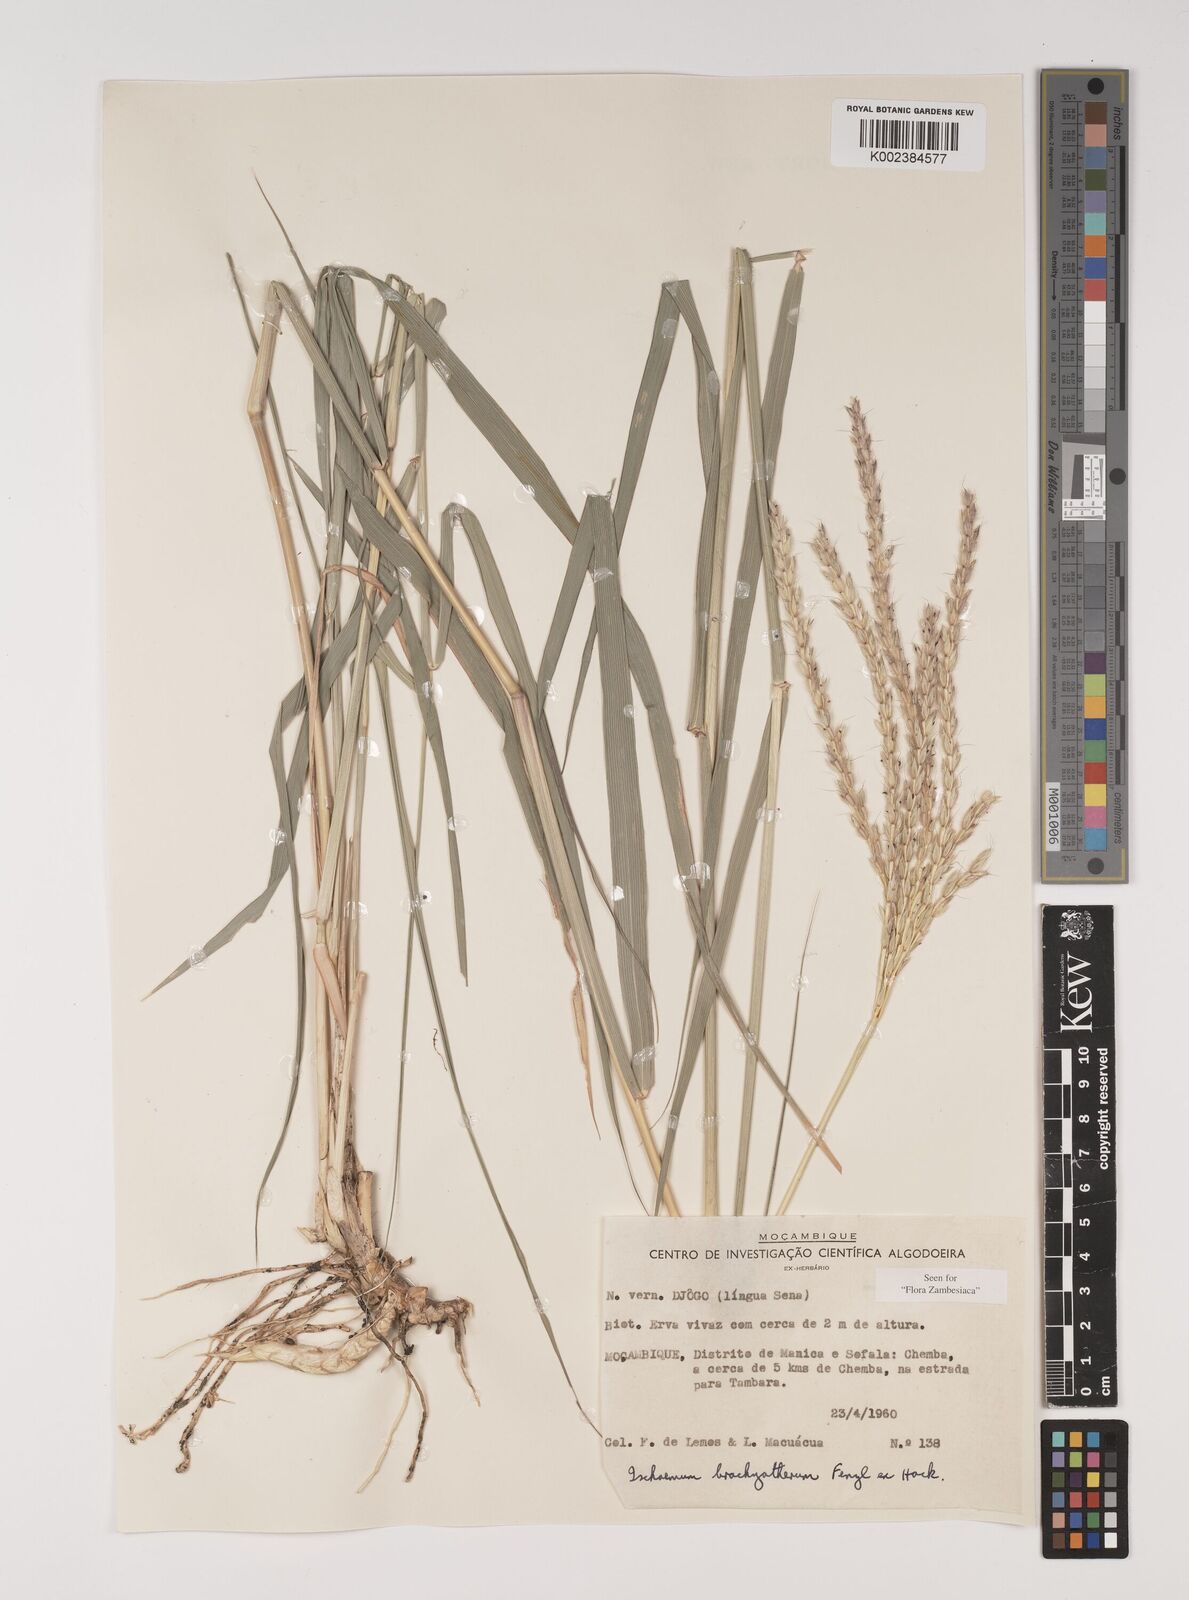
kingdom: Plantae
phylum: Tracheophyta
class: Liliopsida
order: Poales
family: Poaceae
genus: Ischaemum
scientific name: Ischaemum afrum
